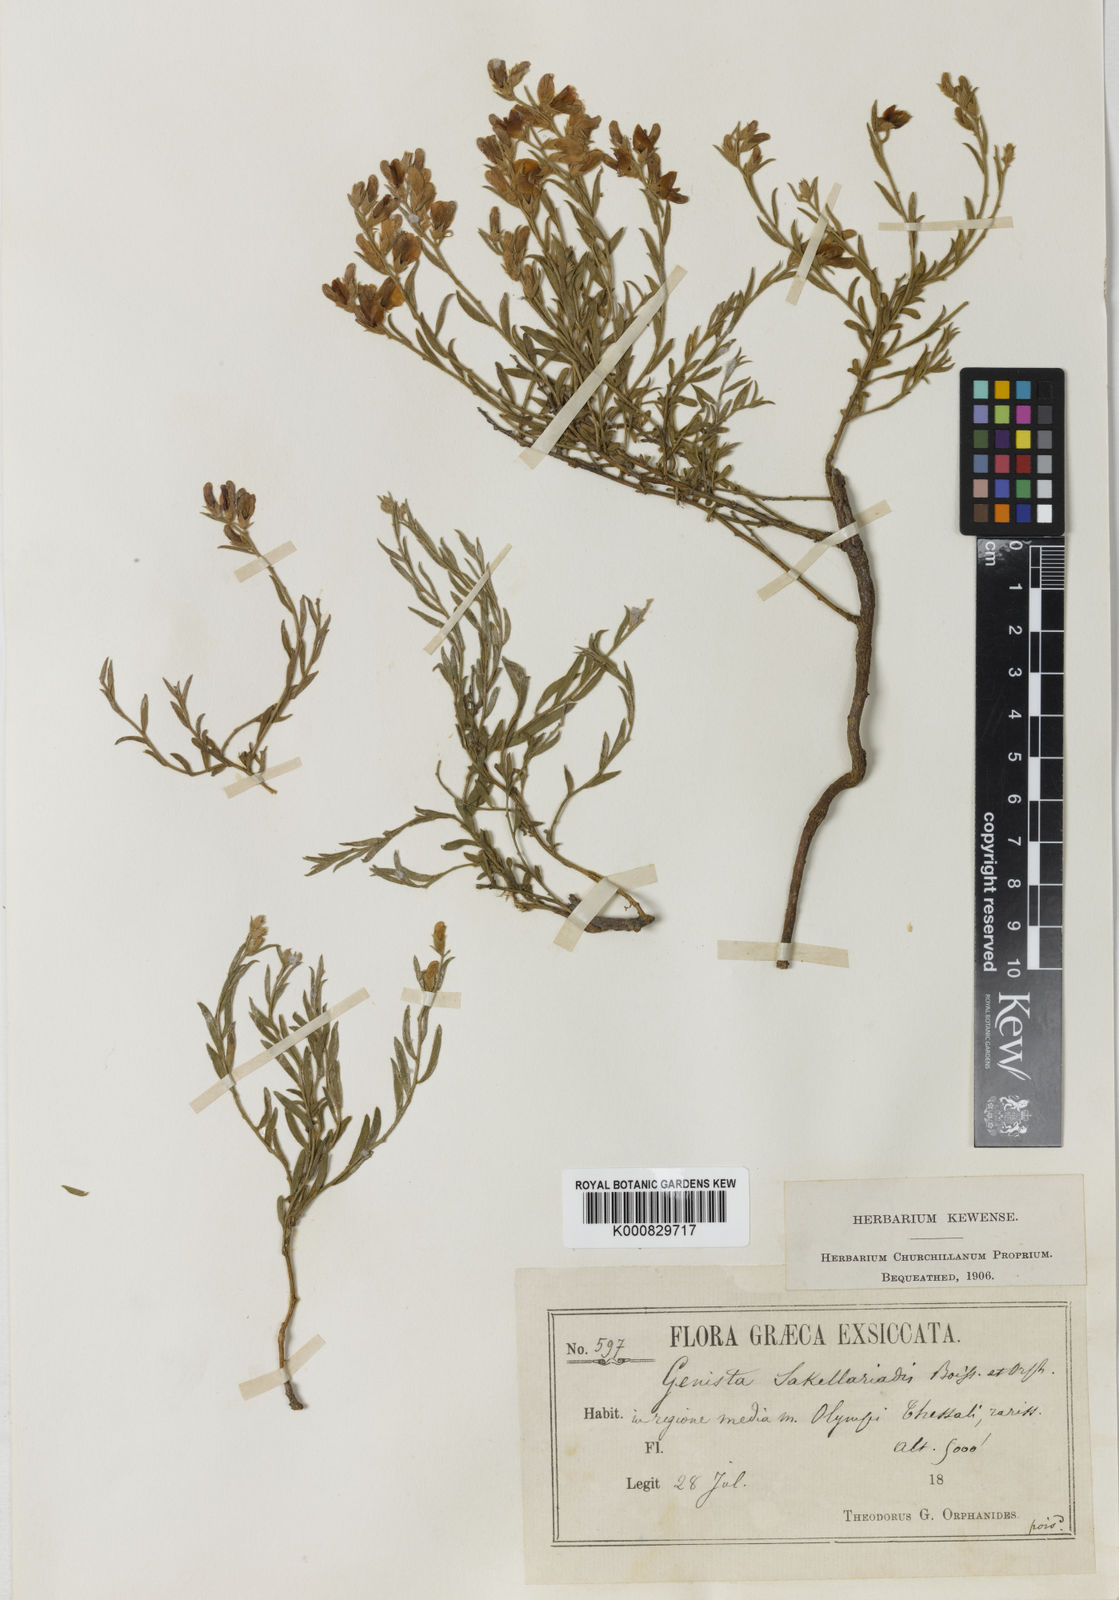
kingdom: Plantae
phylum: Tracheophyta
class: Magnoliopsida
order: Fabales
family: Fabaceae
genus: Genista
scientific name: Genista sakellariadis
